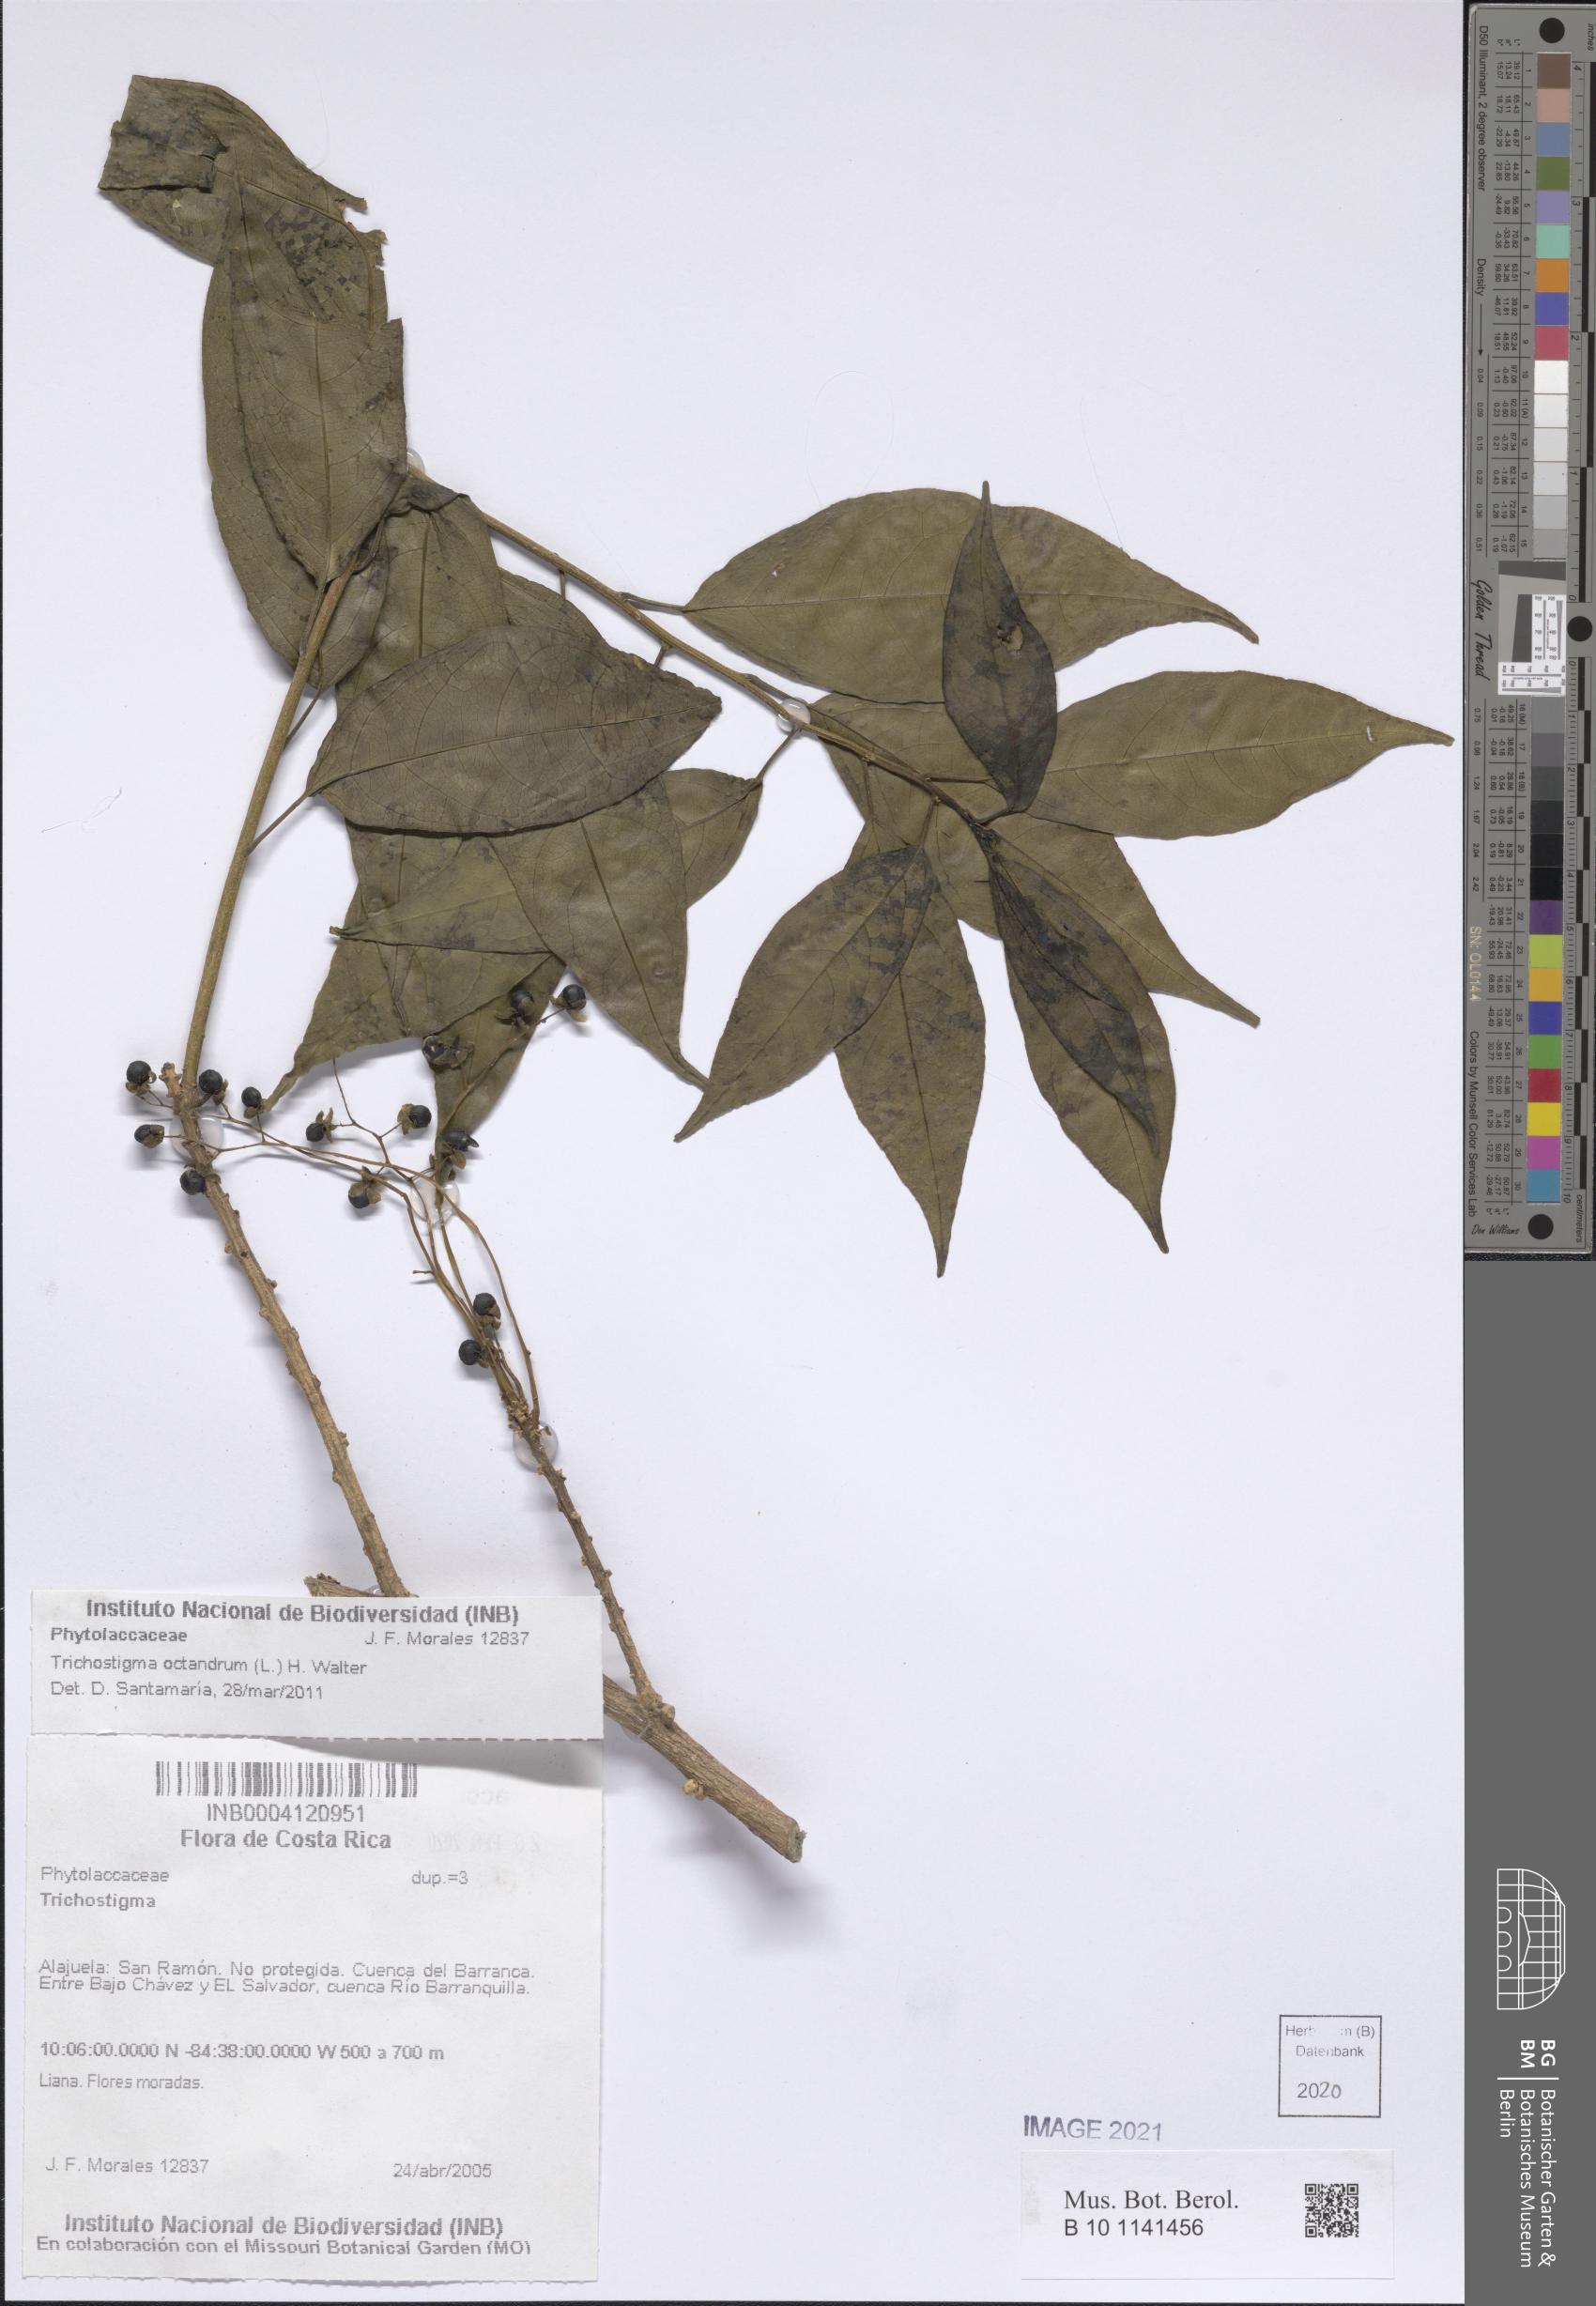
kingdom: Plantae
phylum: Tracheophyta
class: Magnoliopsida
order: Caryophyllales
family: Phytolaccaceae
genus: Trichostigma
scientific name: Trichostigma
